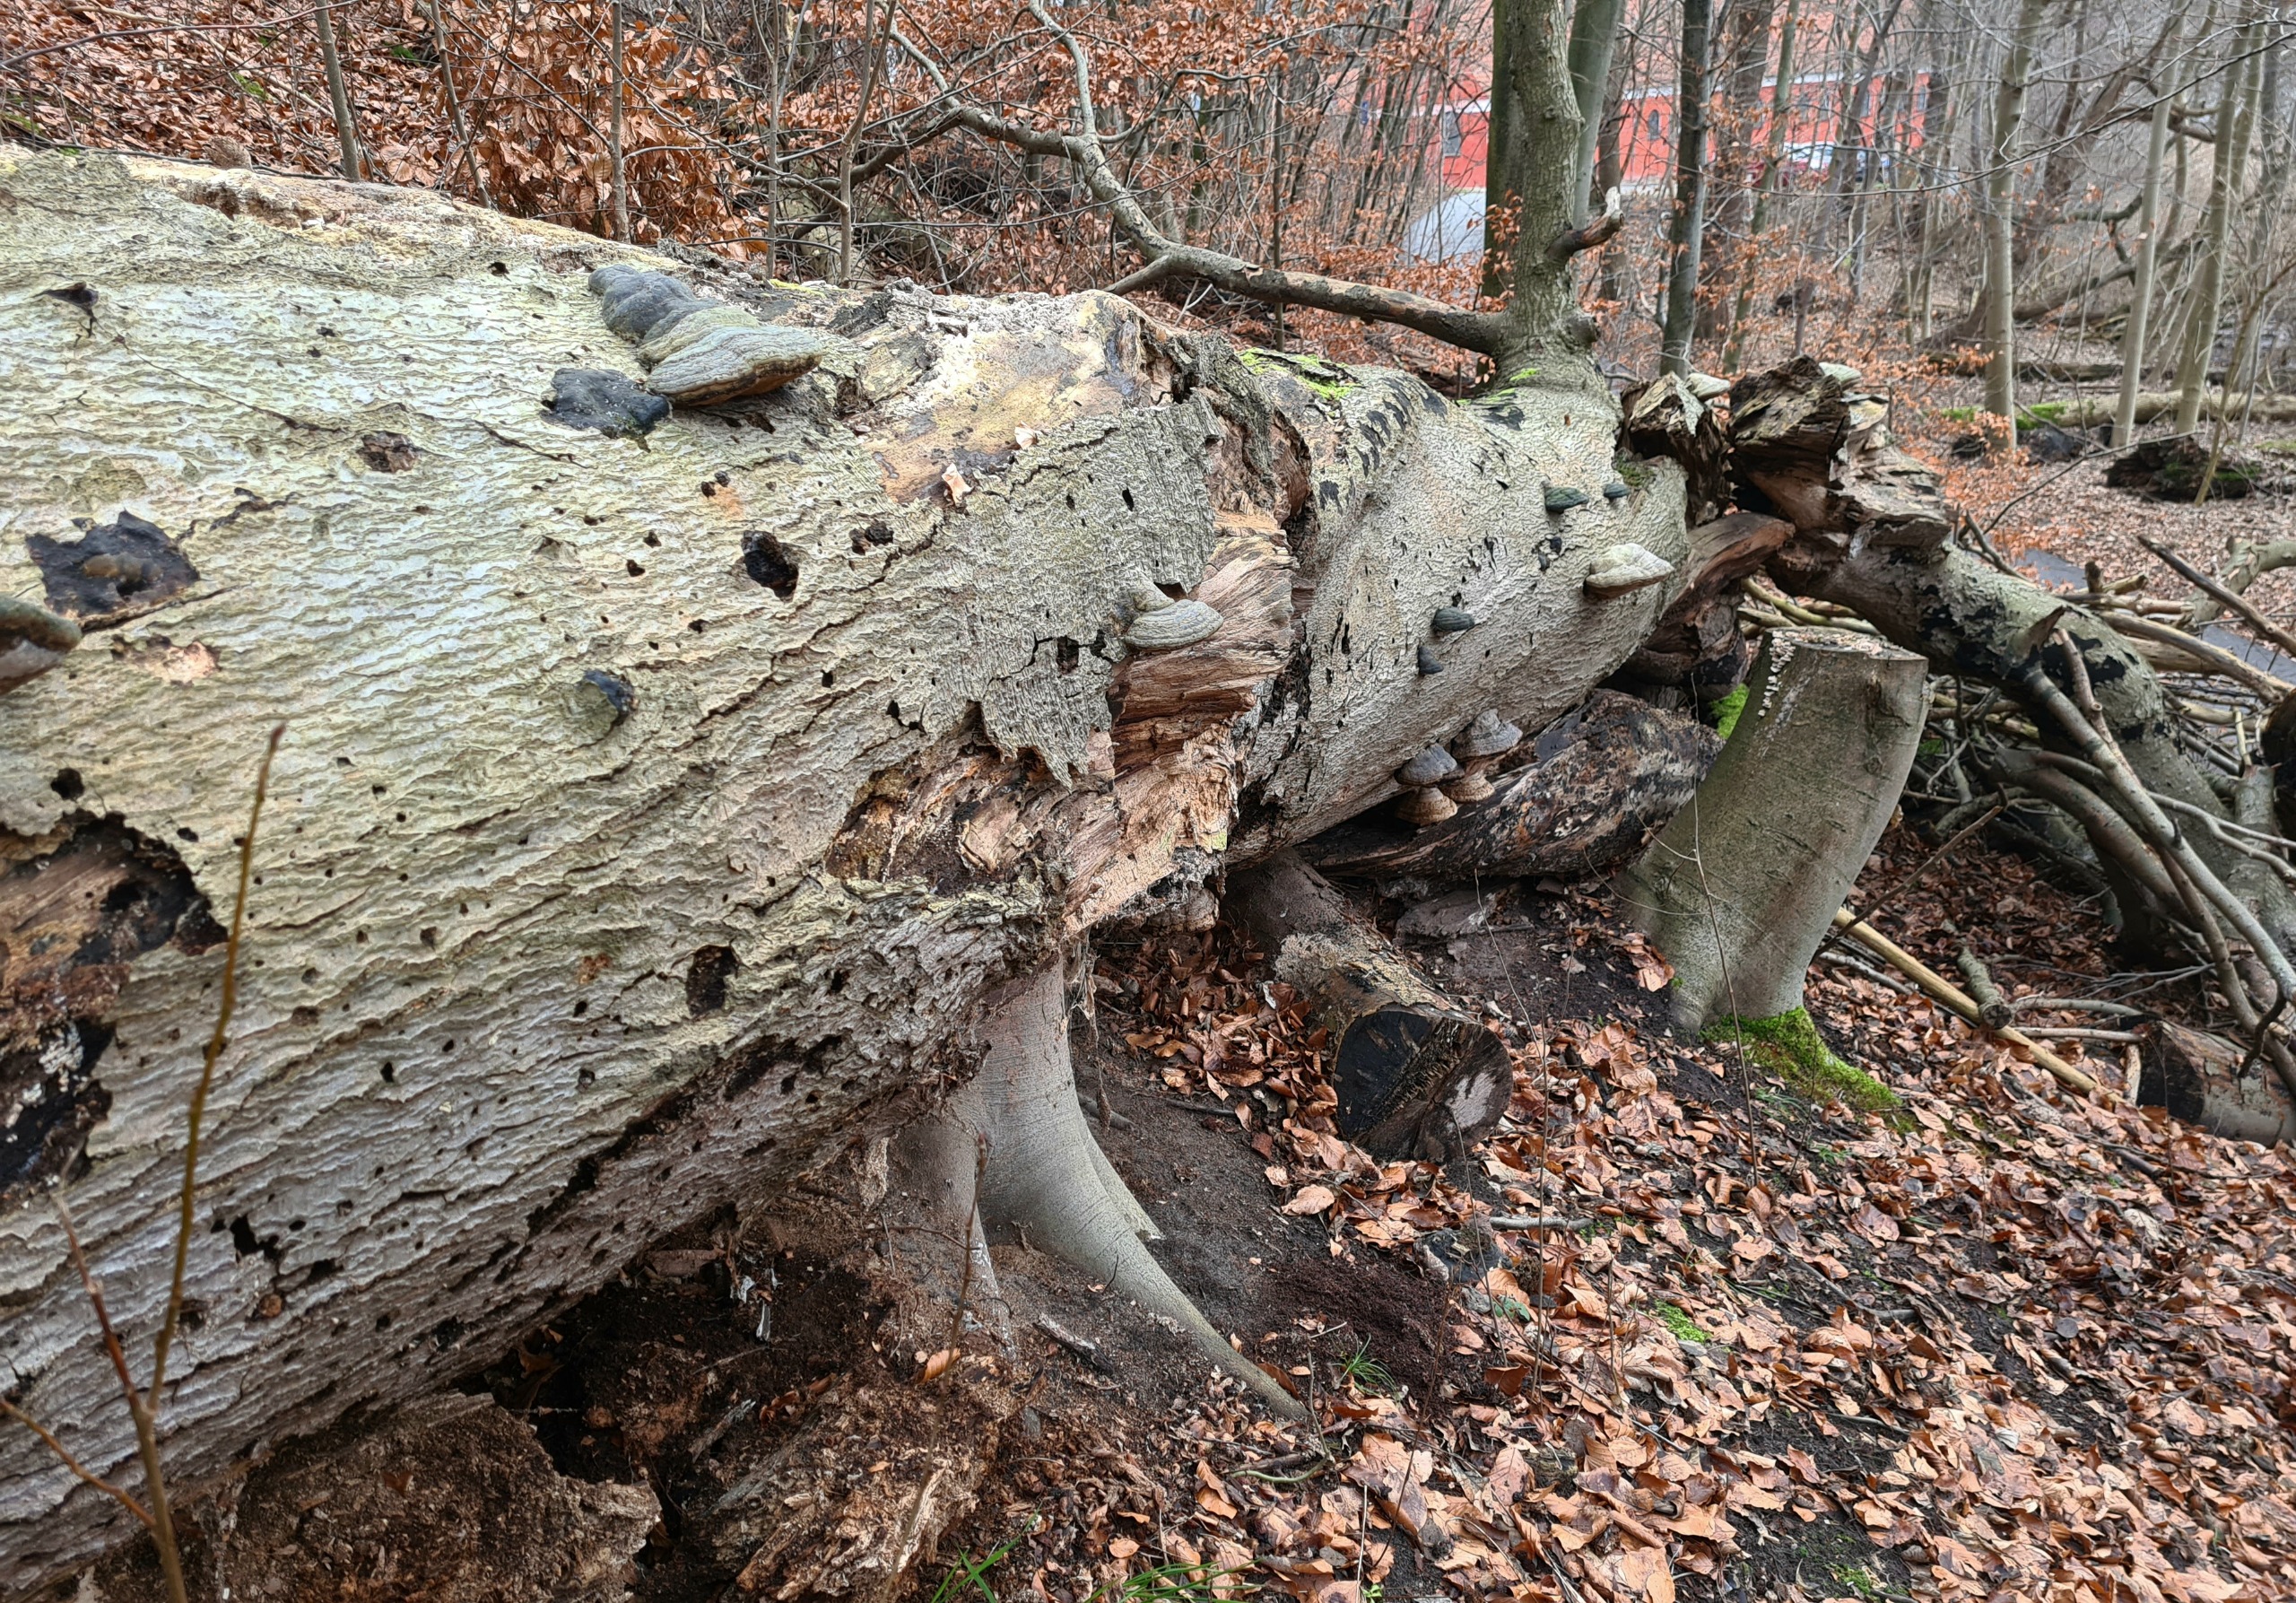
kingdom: Fungi
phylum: Basidiomycota
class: Agaricomycetes
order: Polyporales
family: Polyporaceae
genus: Fomes
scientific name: Fomes fomentarius
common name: Tøndersvamp
